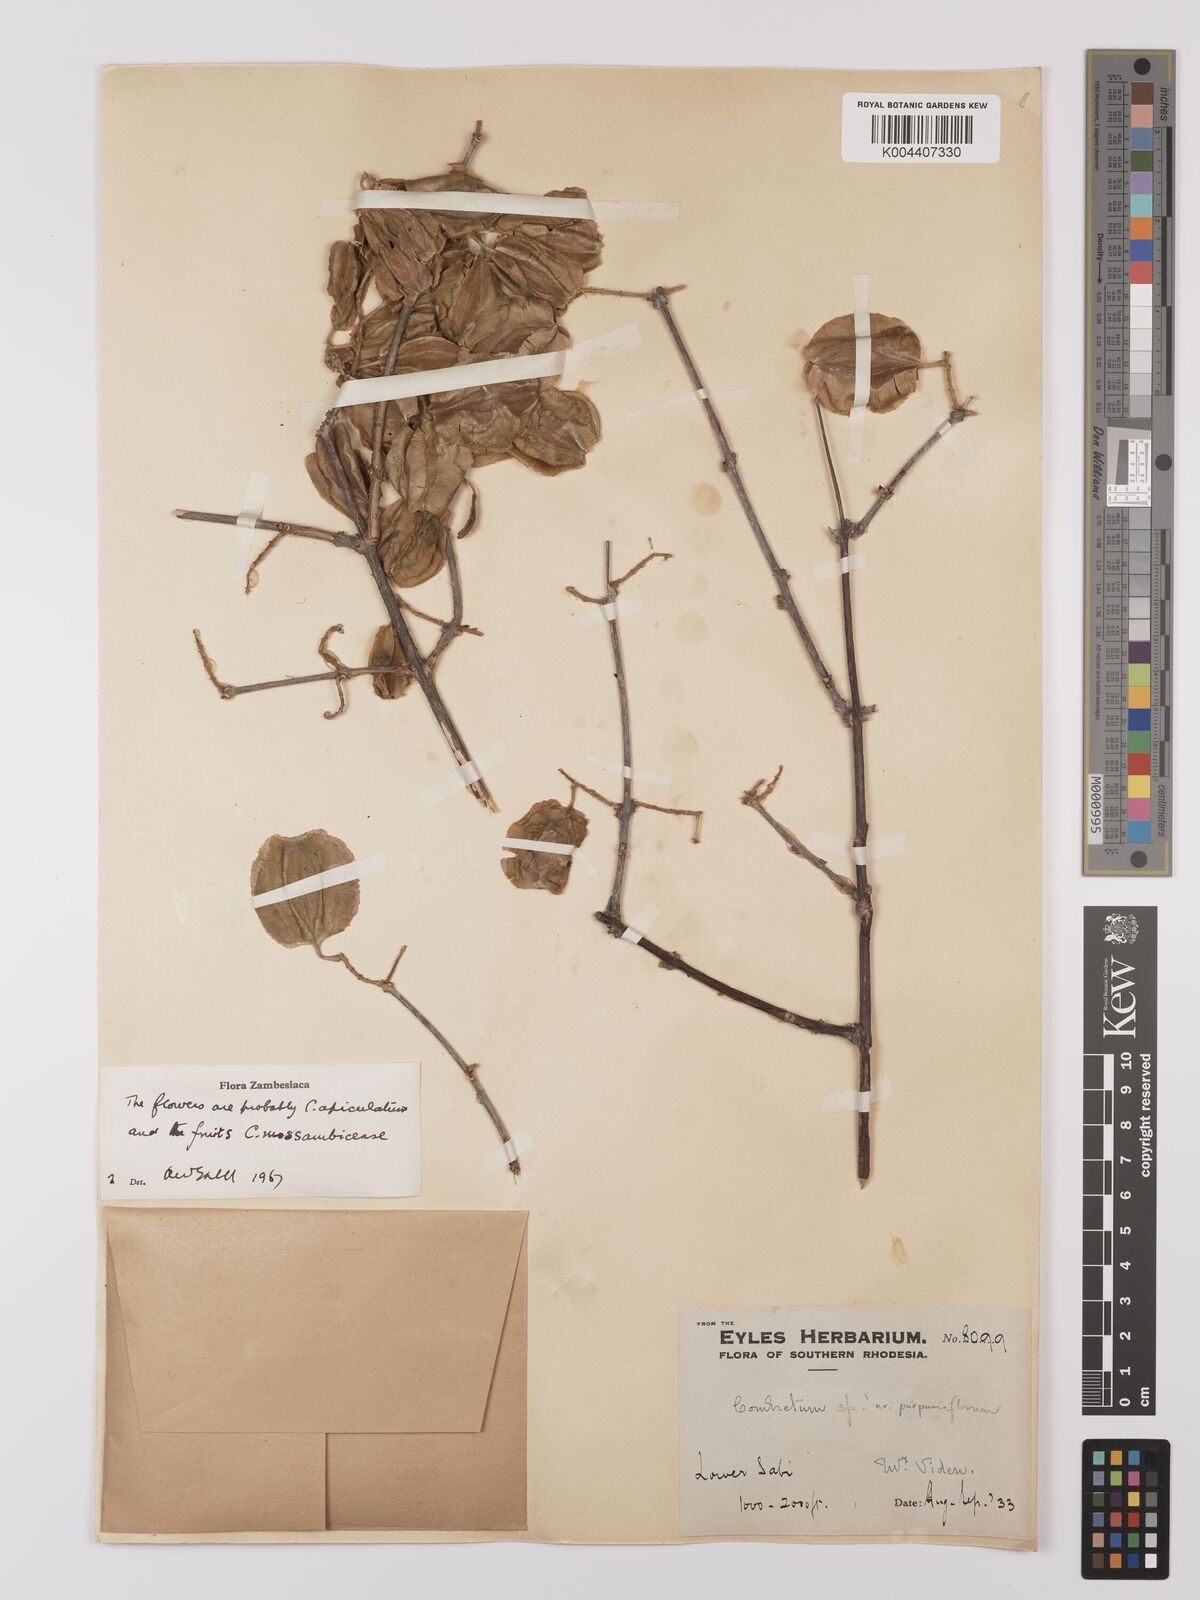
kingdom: Plantae
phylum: Tracheophyta
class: Magnoliopsida
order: Myrtales
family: Combretaceae
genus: Combretum
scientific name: Combretum apiculatum
